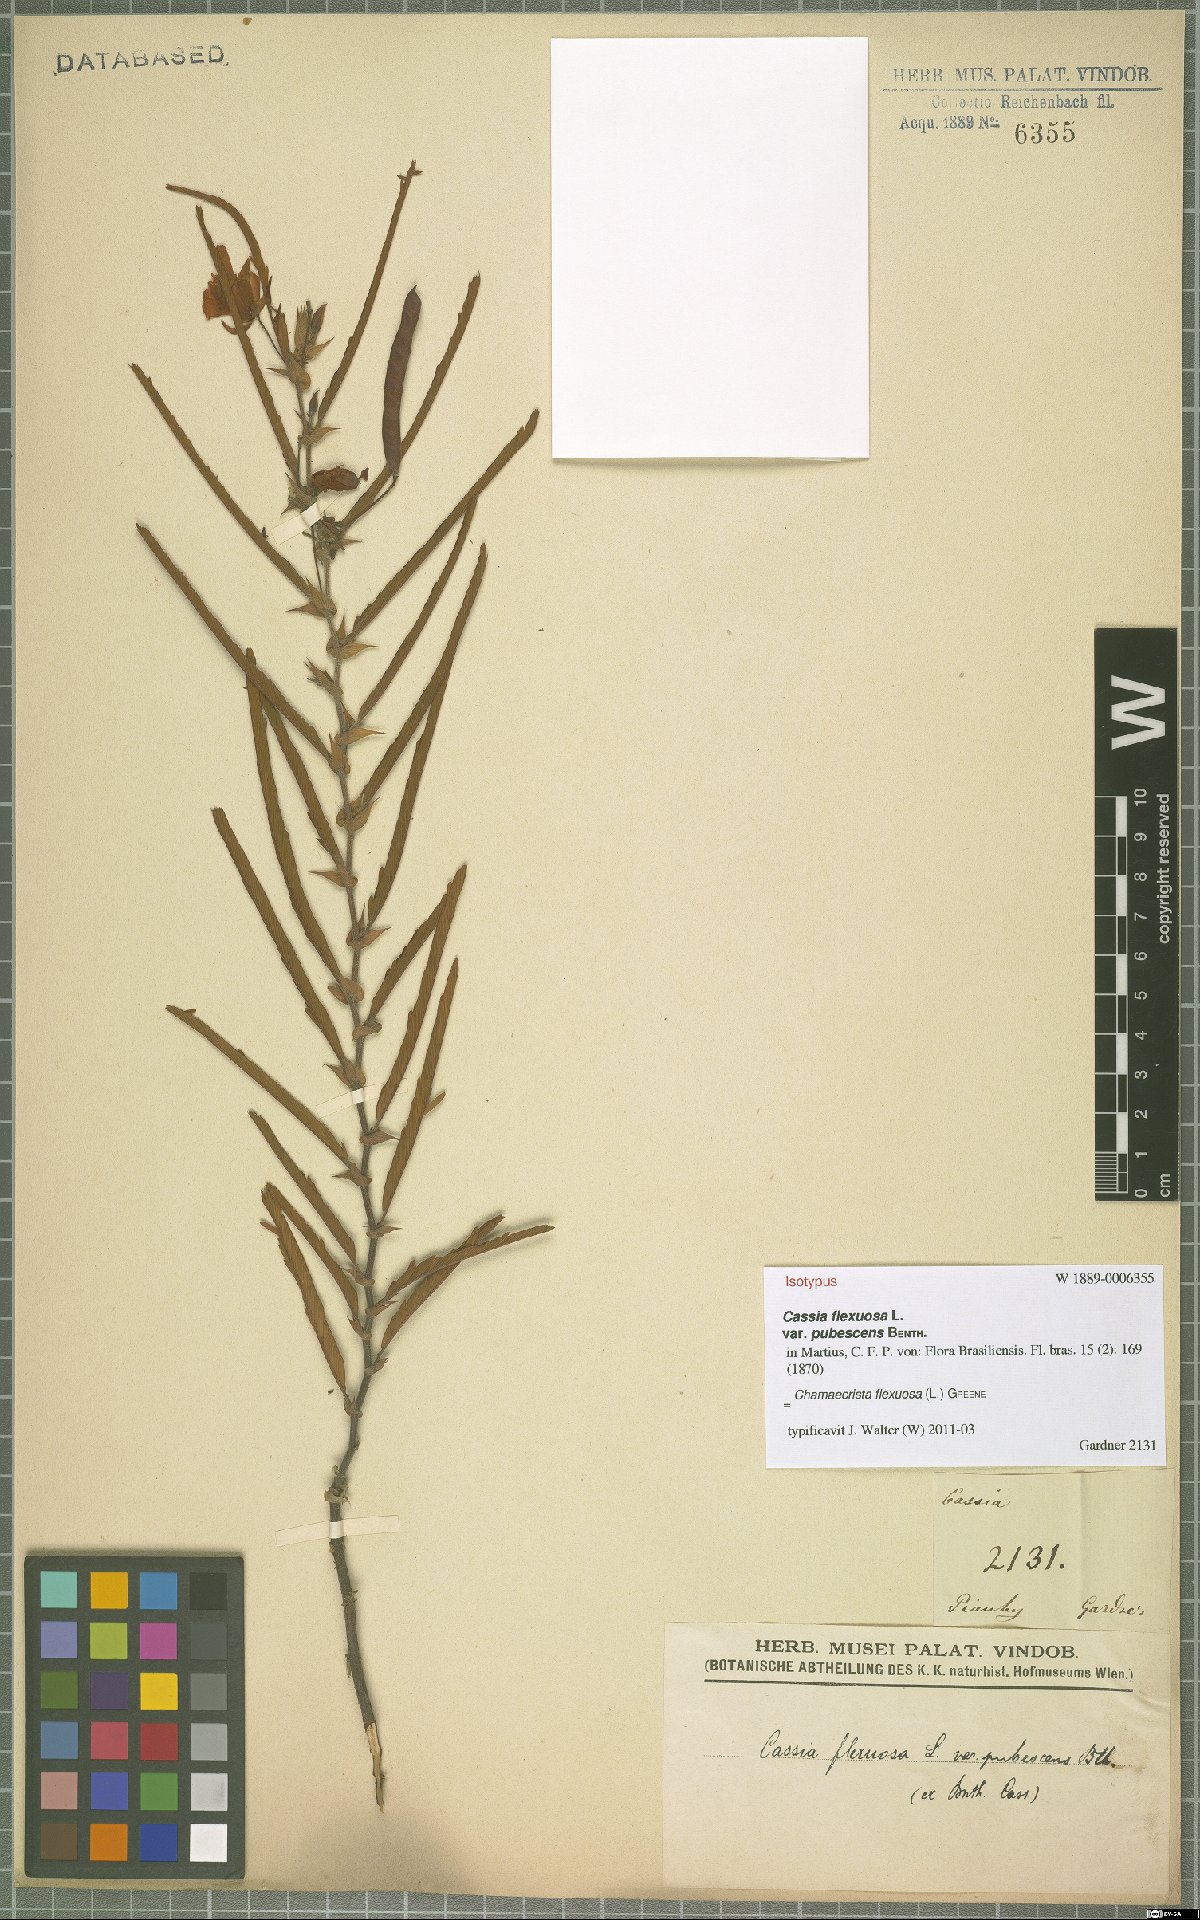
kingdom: Plantae
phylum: Tracheophyta
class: Magnoliopsida
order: Fabales
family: Fabaceae
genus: Chamaecrista
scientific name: Chamaecrista flexuosa
